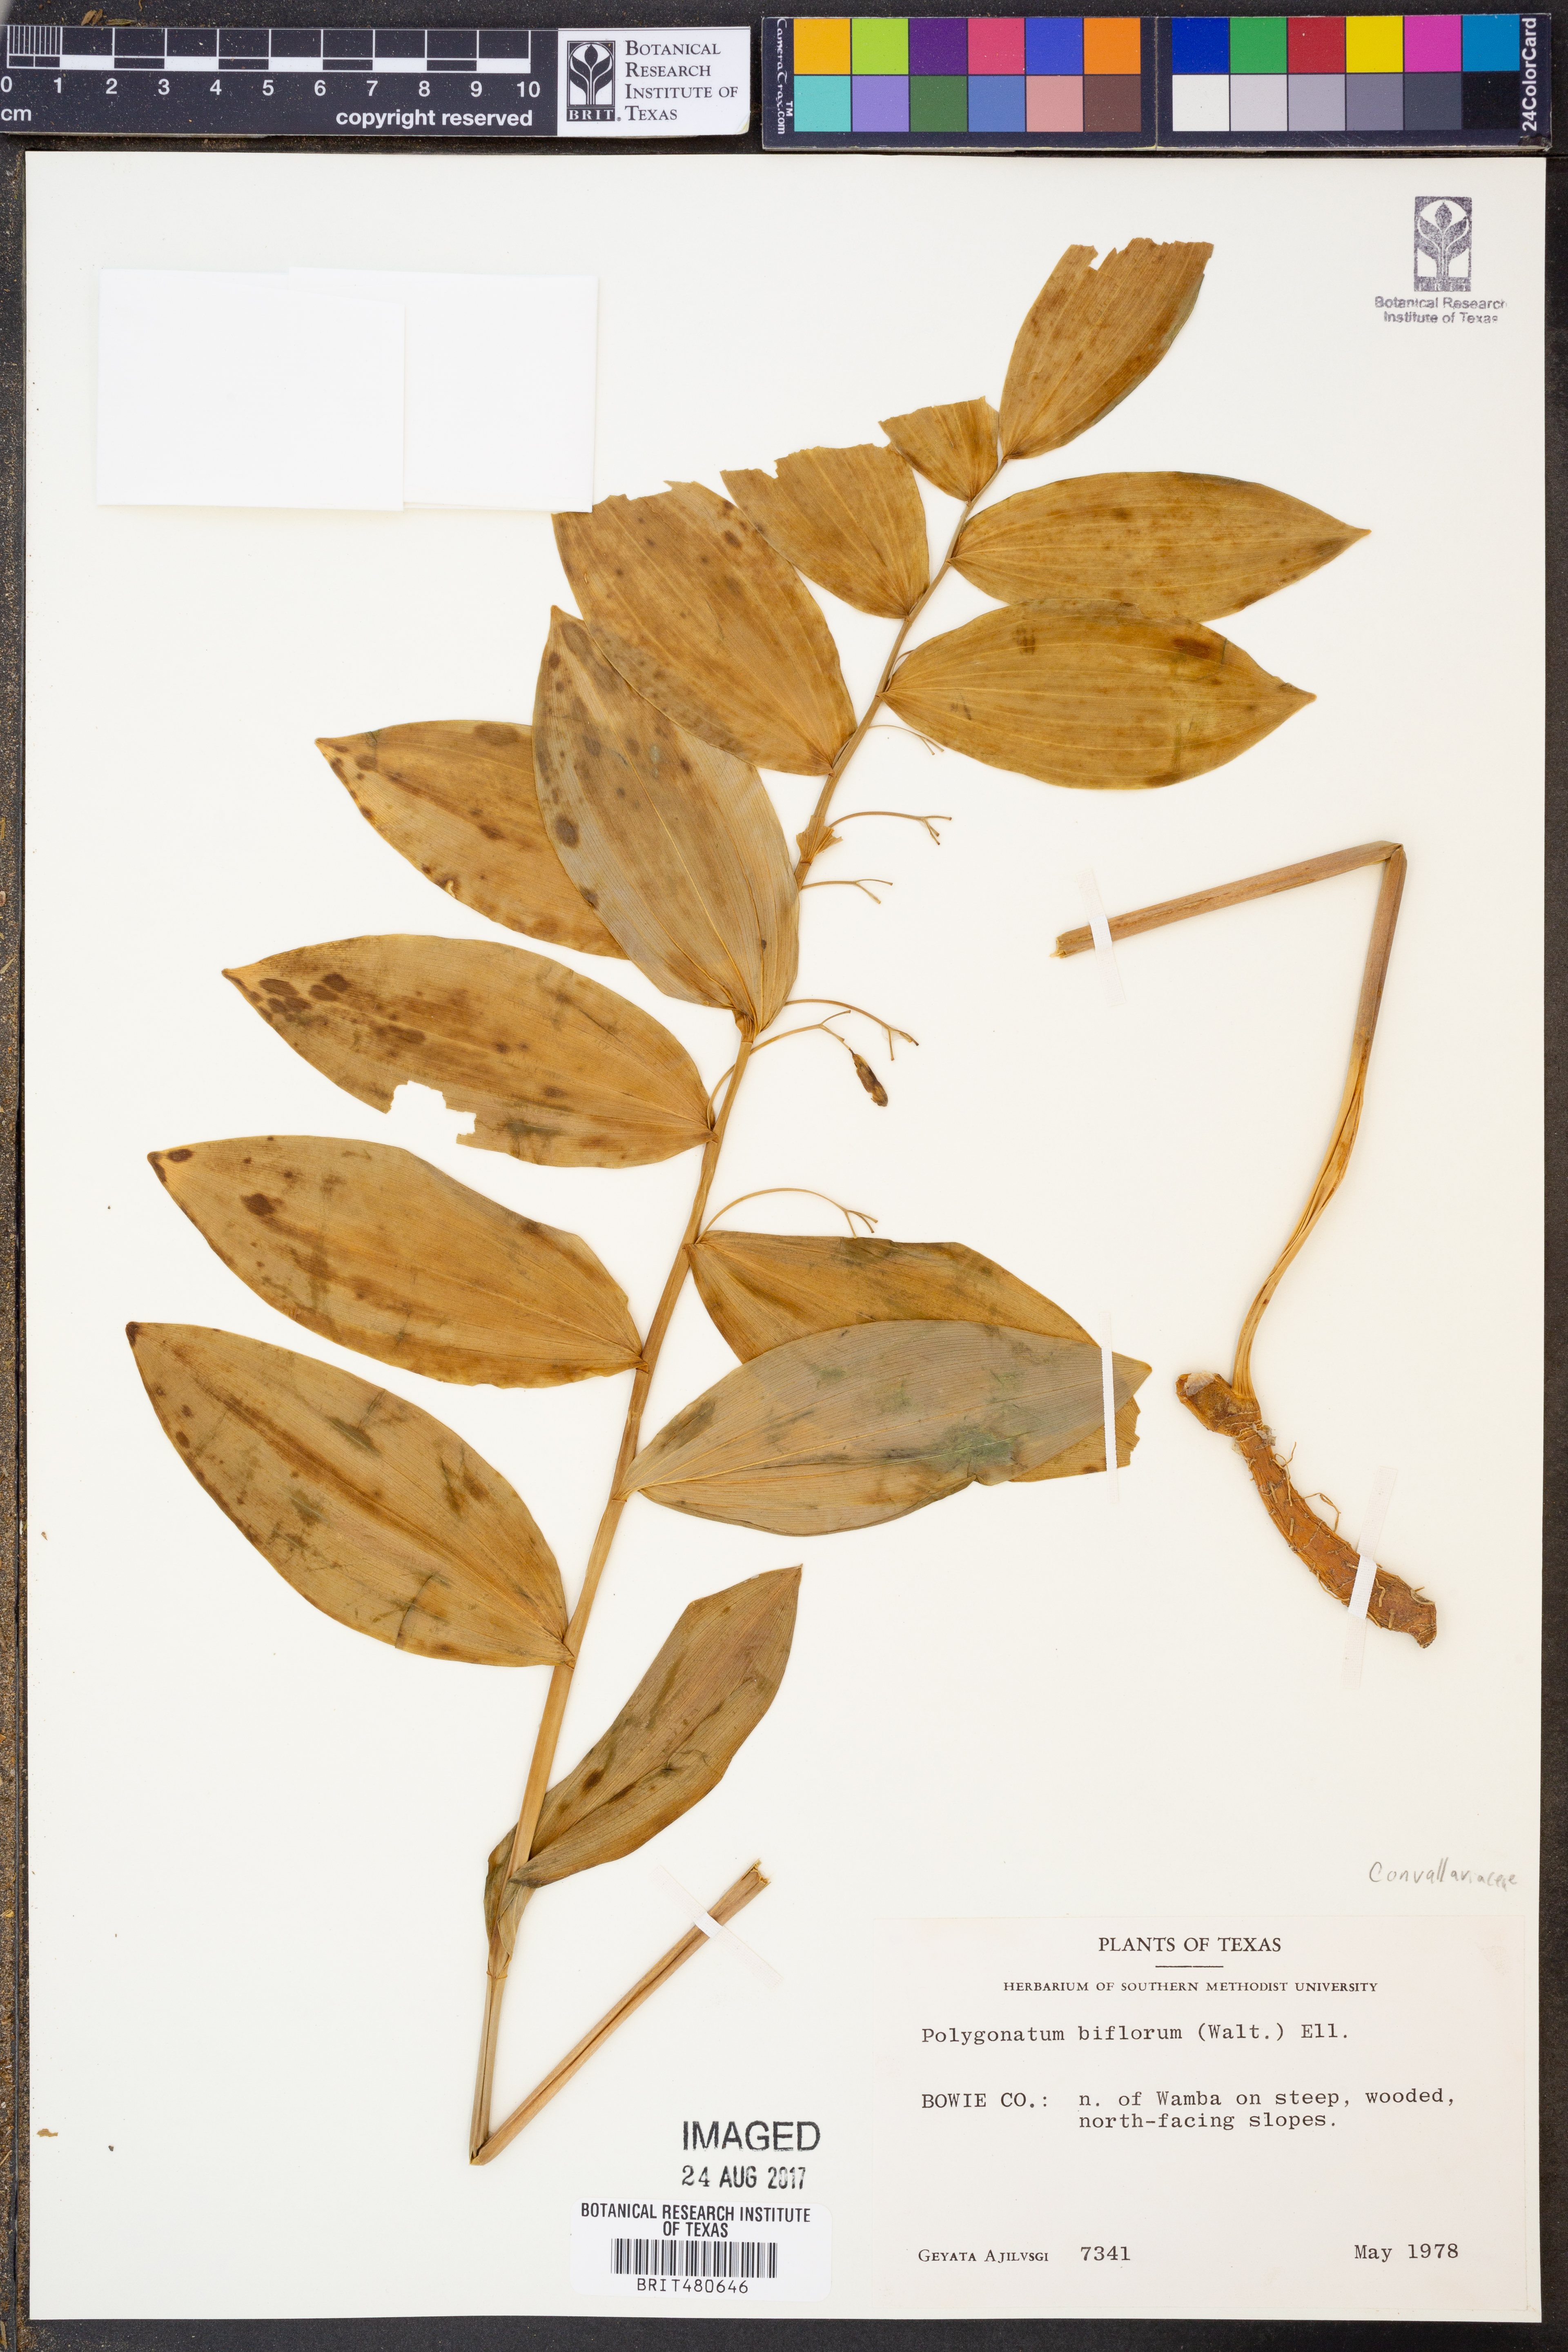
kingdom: Plantae
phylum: Tracheophyta
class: Liliopsida
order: Asparagales
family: Asparagaceae
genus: Polygonatum
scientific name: Polygonatum biflorum
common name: American solomon's-seal
